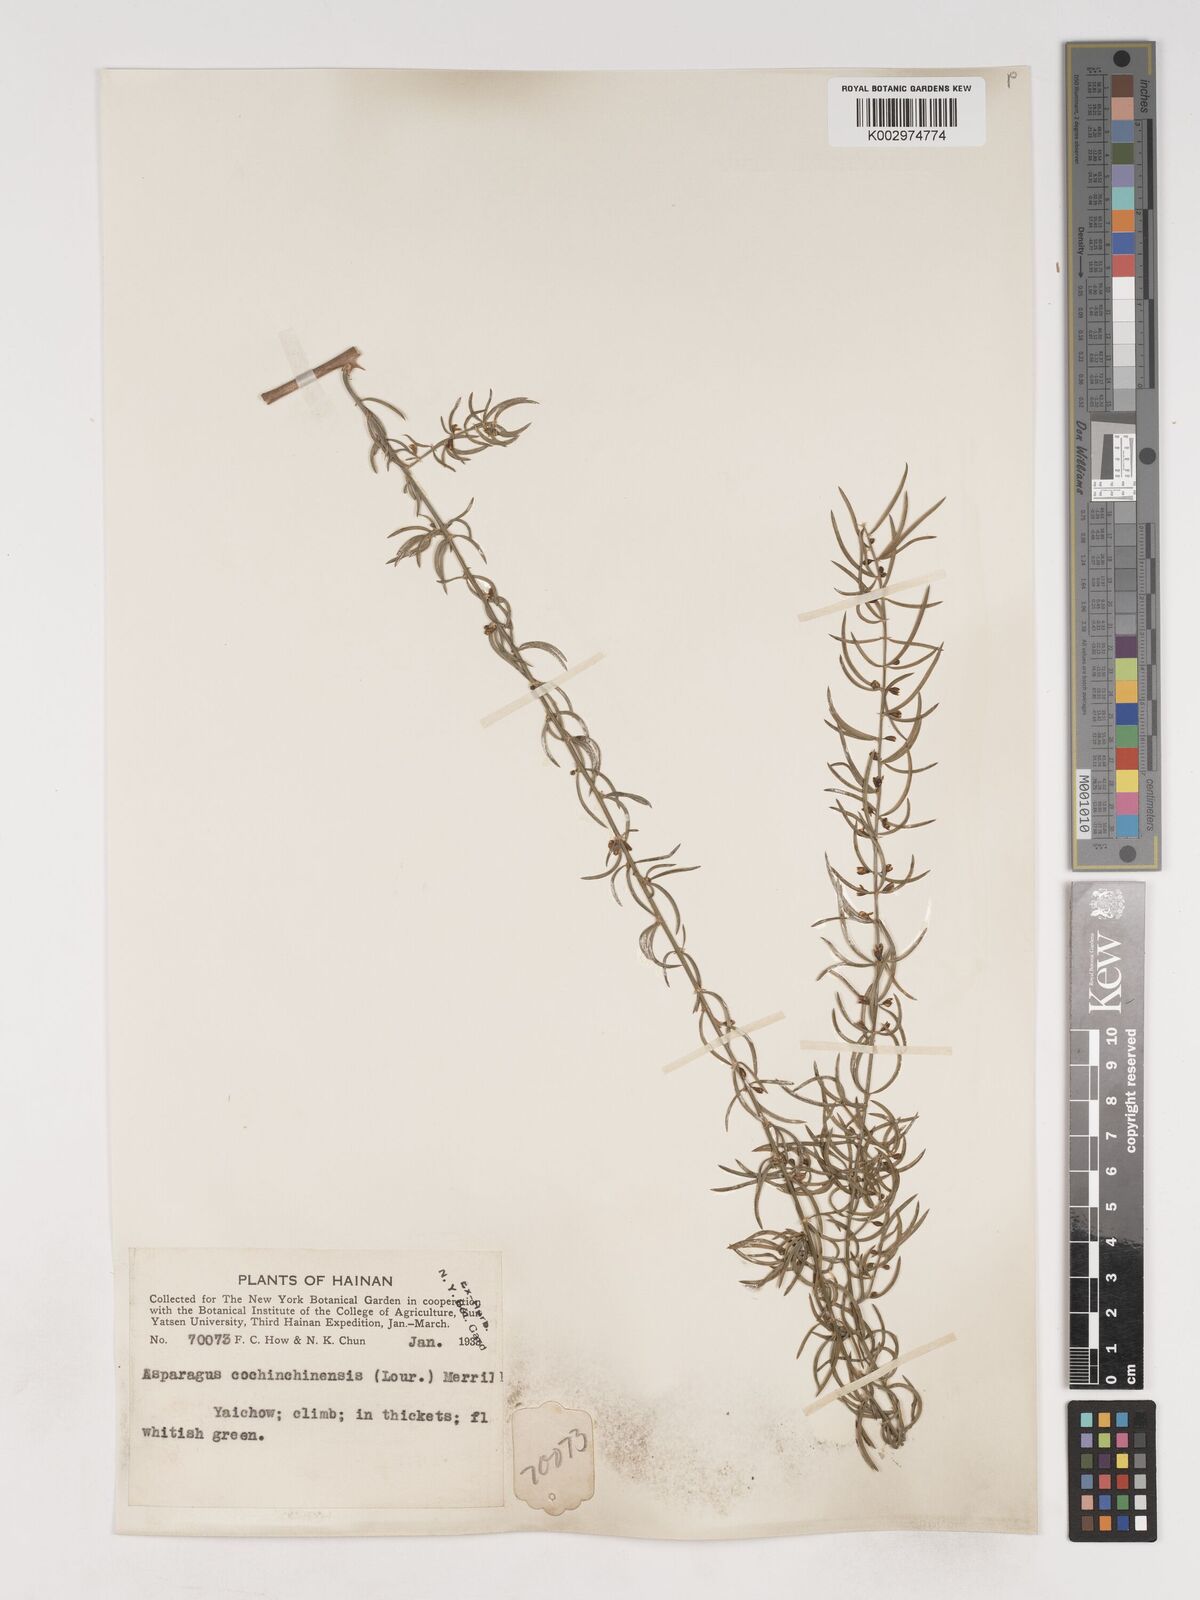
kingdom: Plantae
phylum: Tracheophyta
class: Liliopsida
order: Asparagales
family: Asparagaceae
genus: Asparagus
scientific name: Asparagus cochinchinensis
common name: Chinese asparagus
